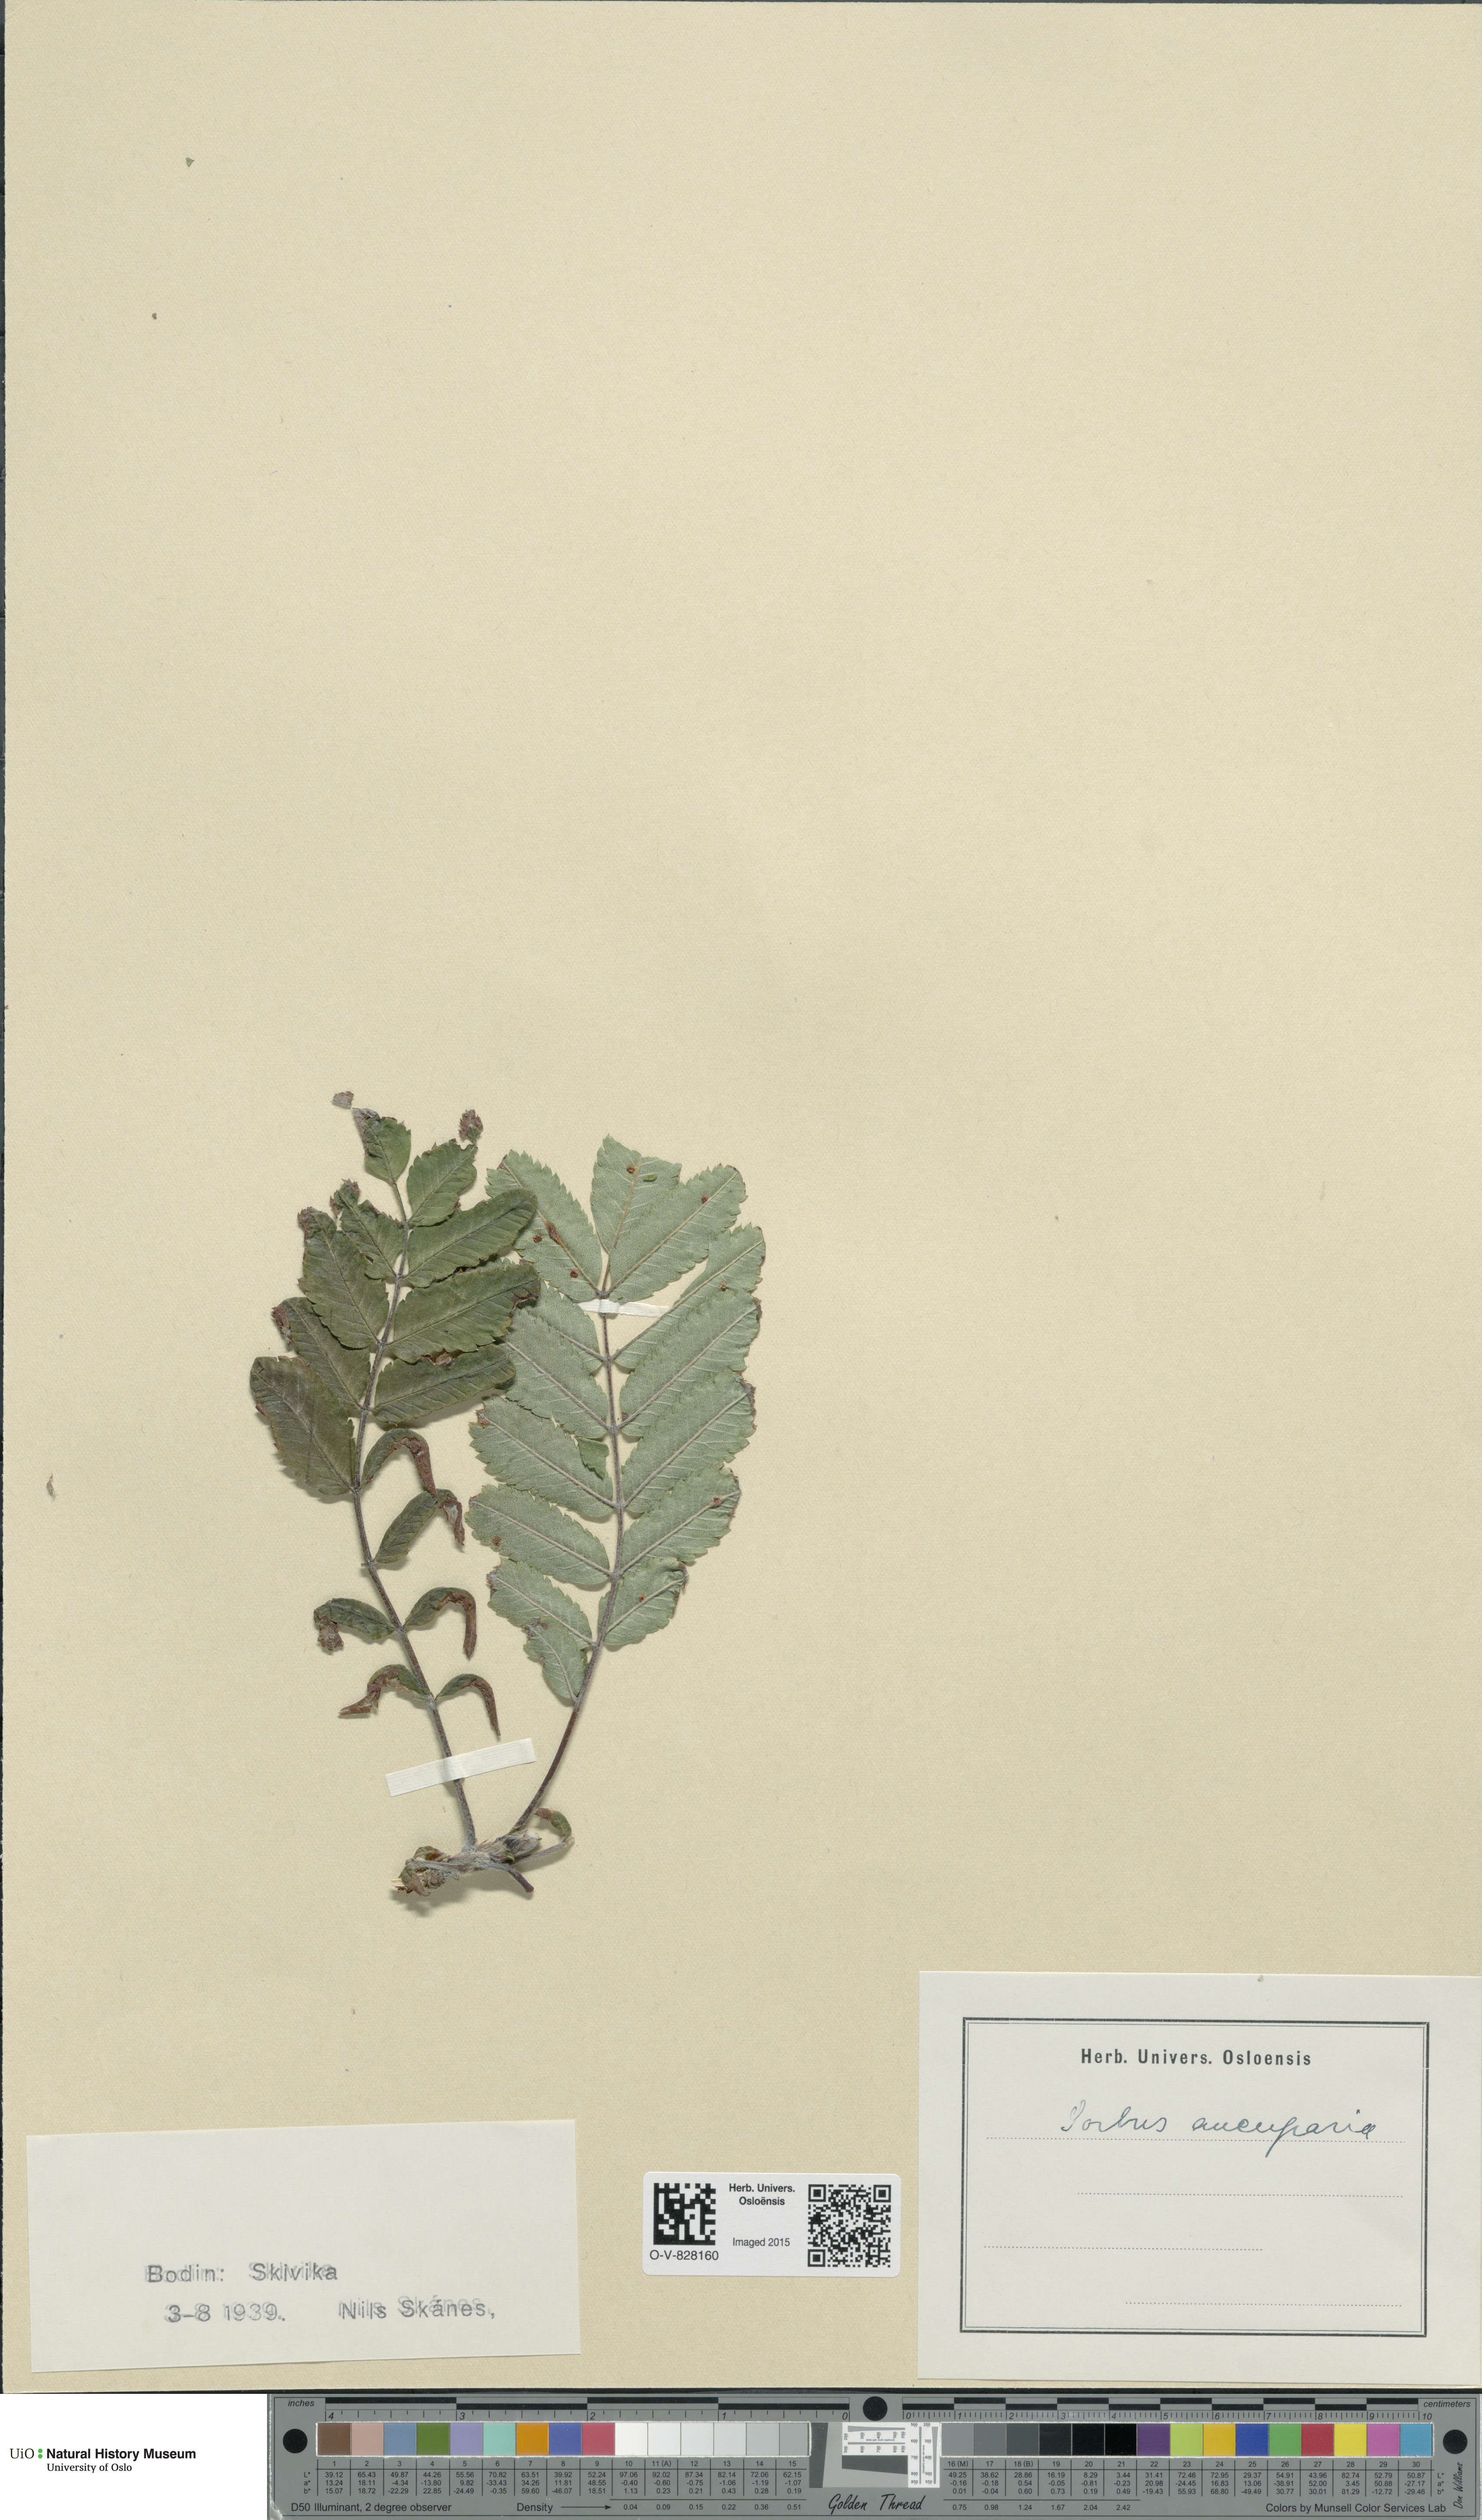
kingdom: Plantae
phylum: Tracheophyta
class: Magnoliopsida
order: Rosales
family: Rosaceae
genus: Sorbus
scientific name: Sorbus aucuparia
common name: Rowan
